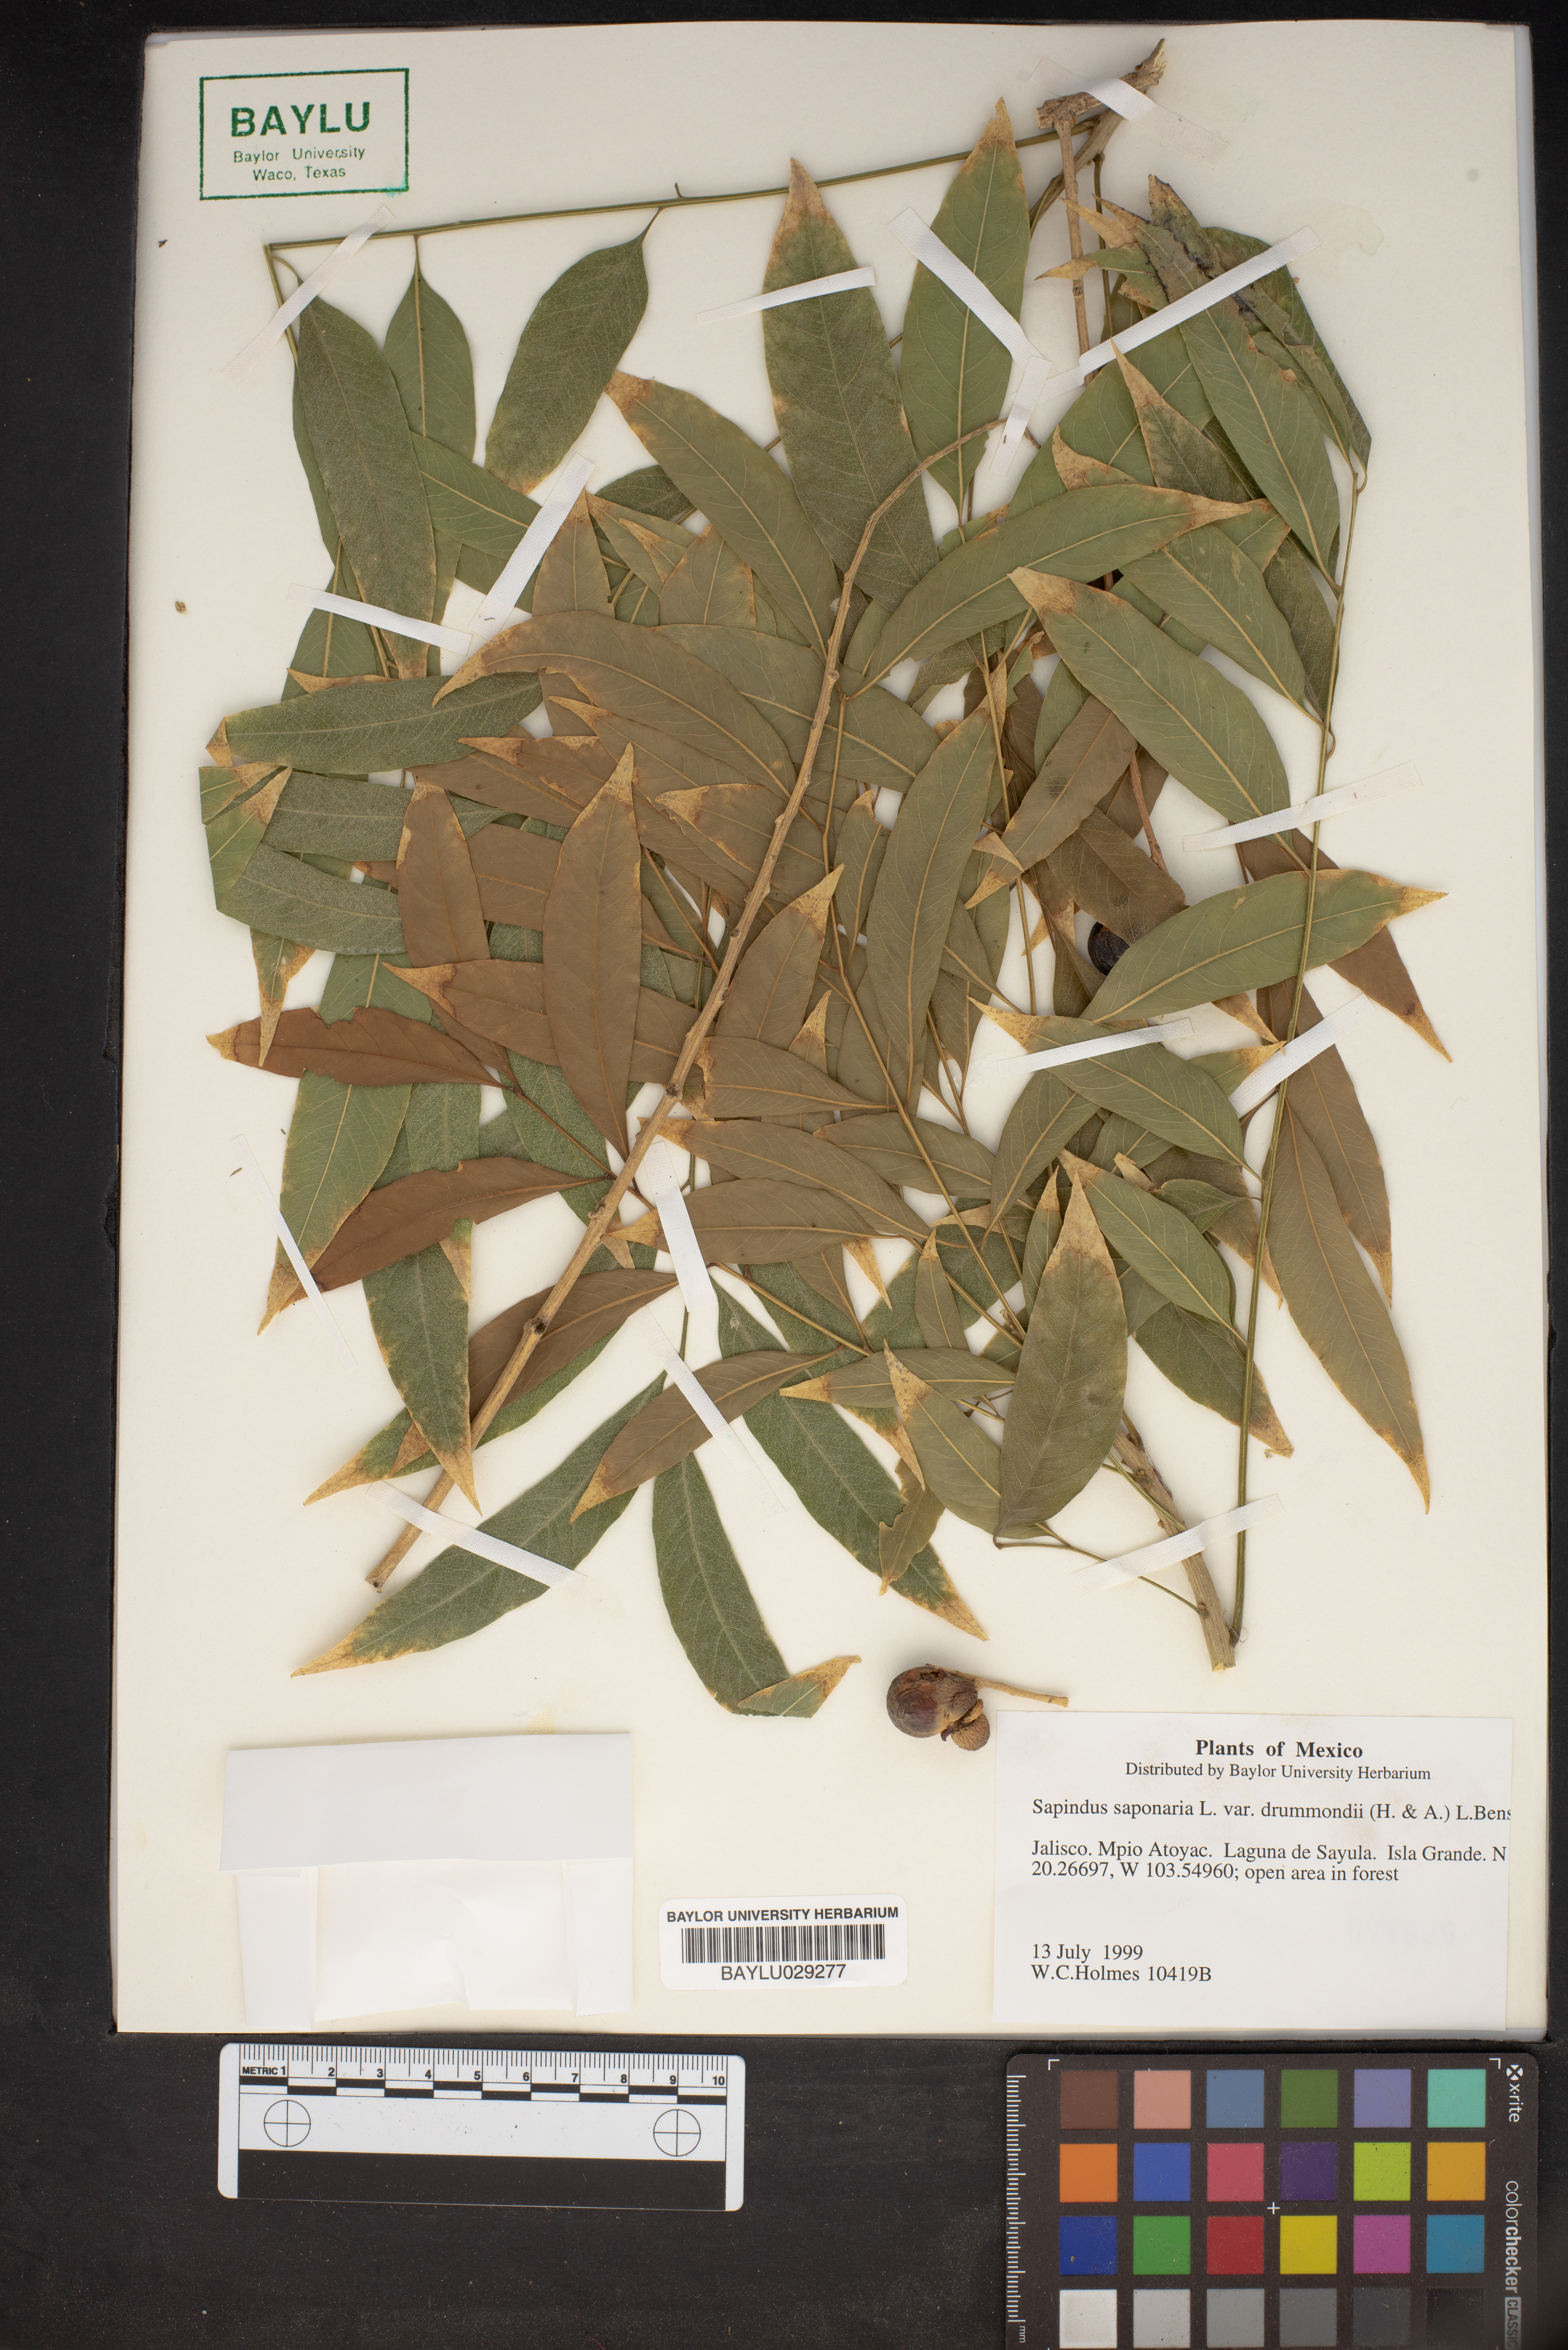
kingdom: Plantae
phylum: Tracheophyta
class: Magnoliopsida
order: Sapindales
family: Sapindaceae
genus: Sapindus
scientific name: Sapindus drummondii
